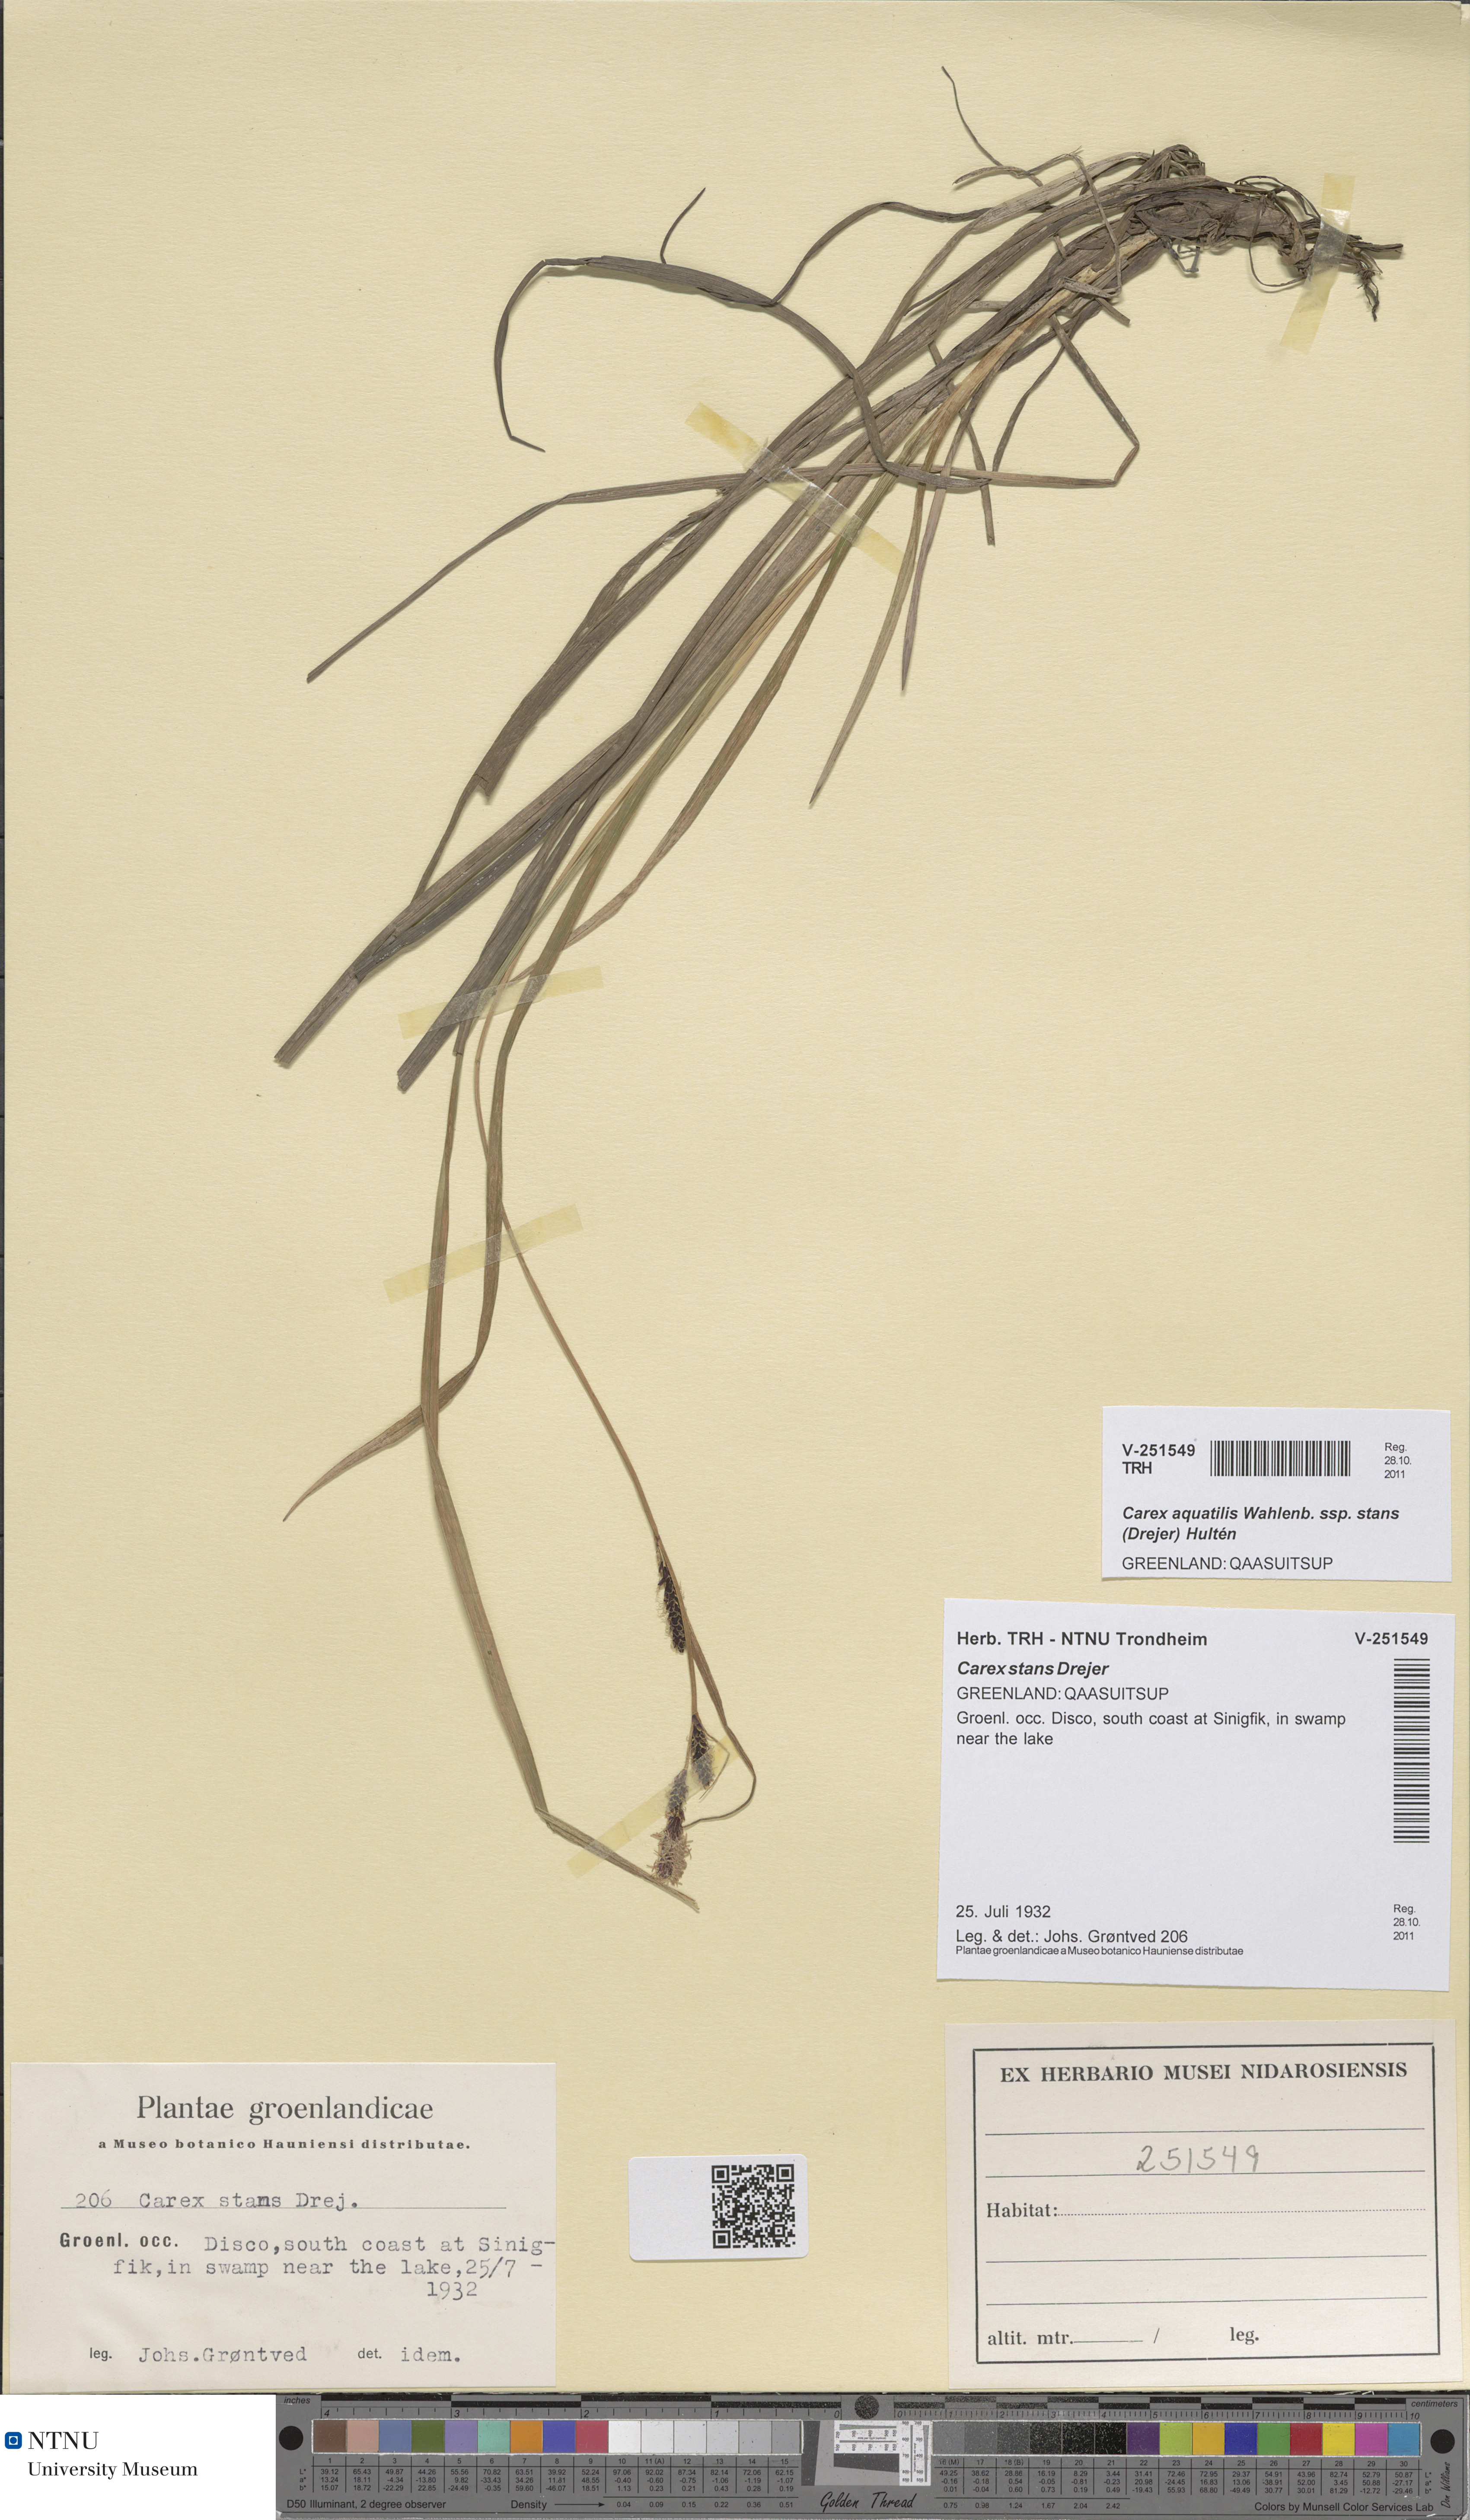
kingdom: Plantae
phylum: Tracheophyta
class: Liliopsida
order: Poales
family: Cyperaceae
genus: Carex
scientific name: Carex aquatilis
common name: Water sedge
